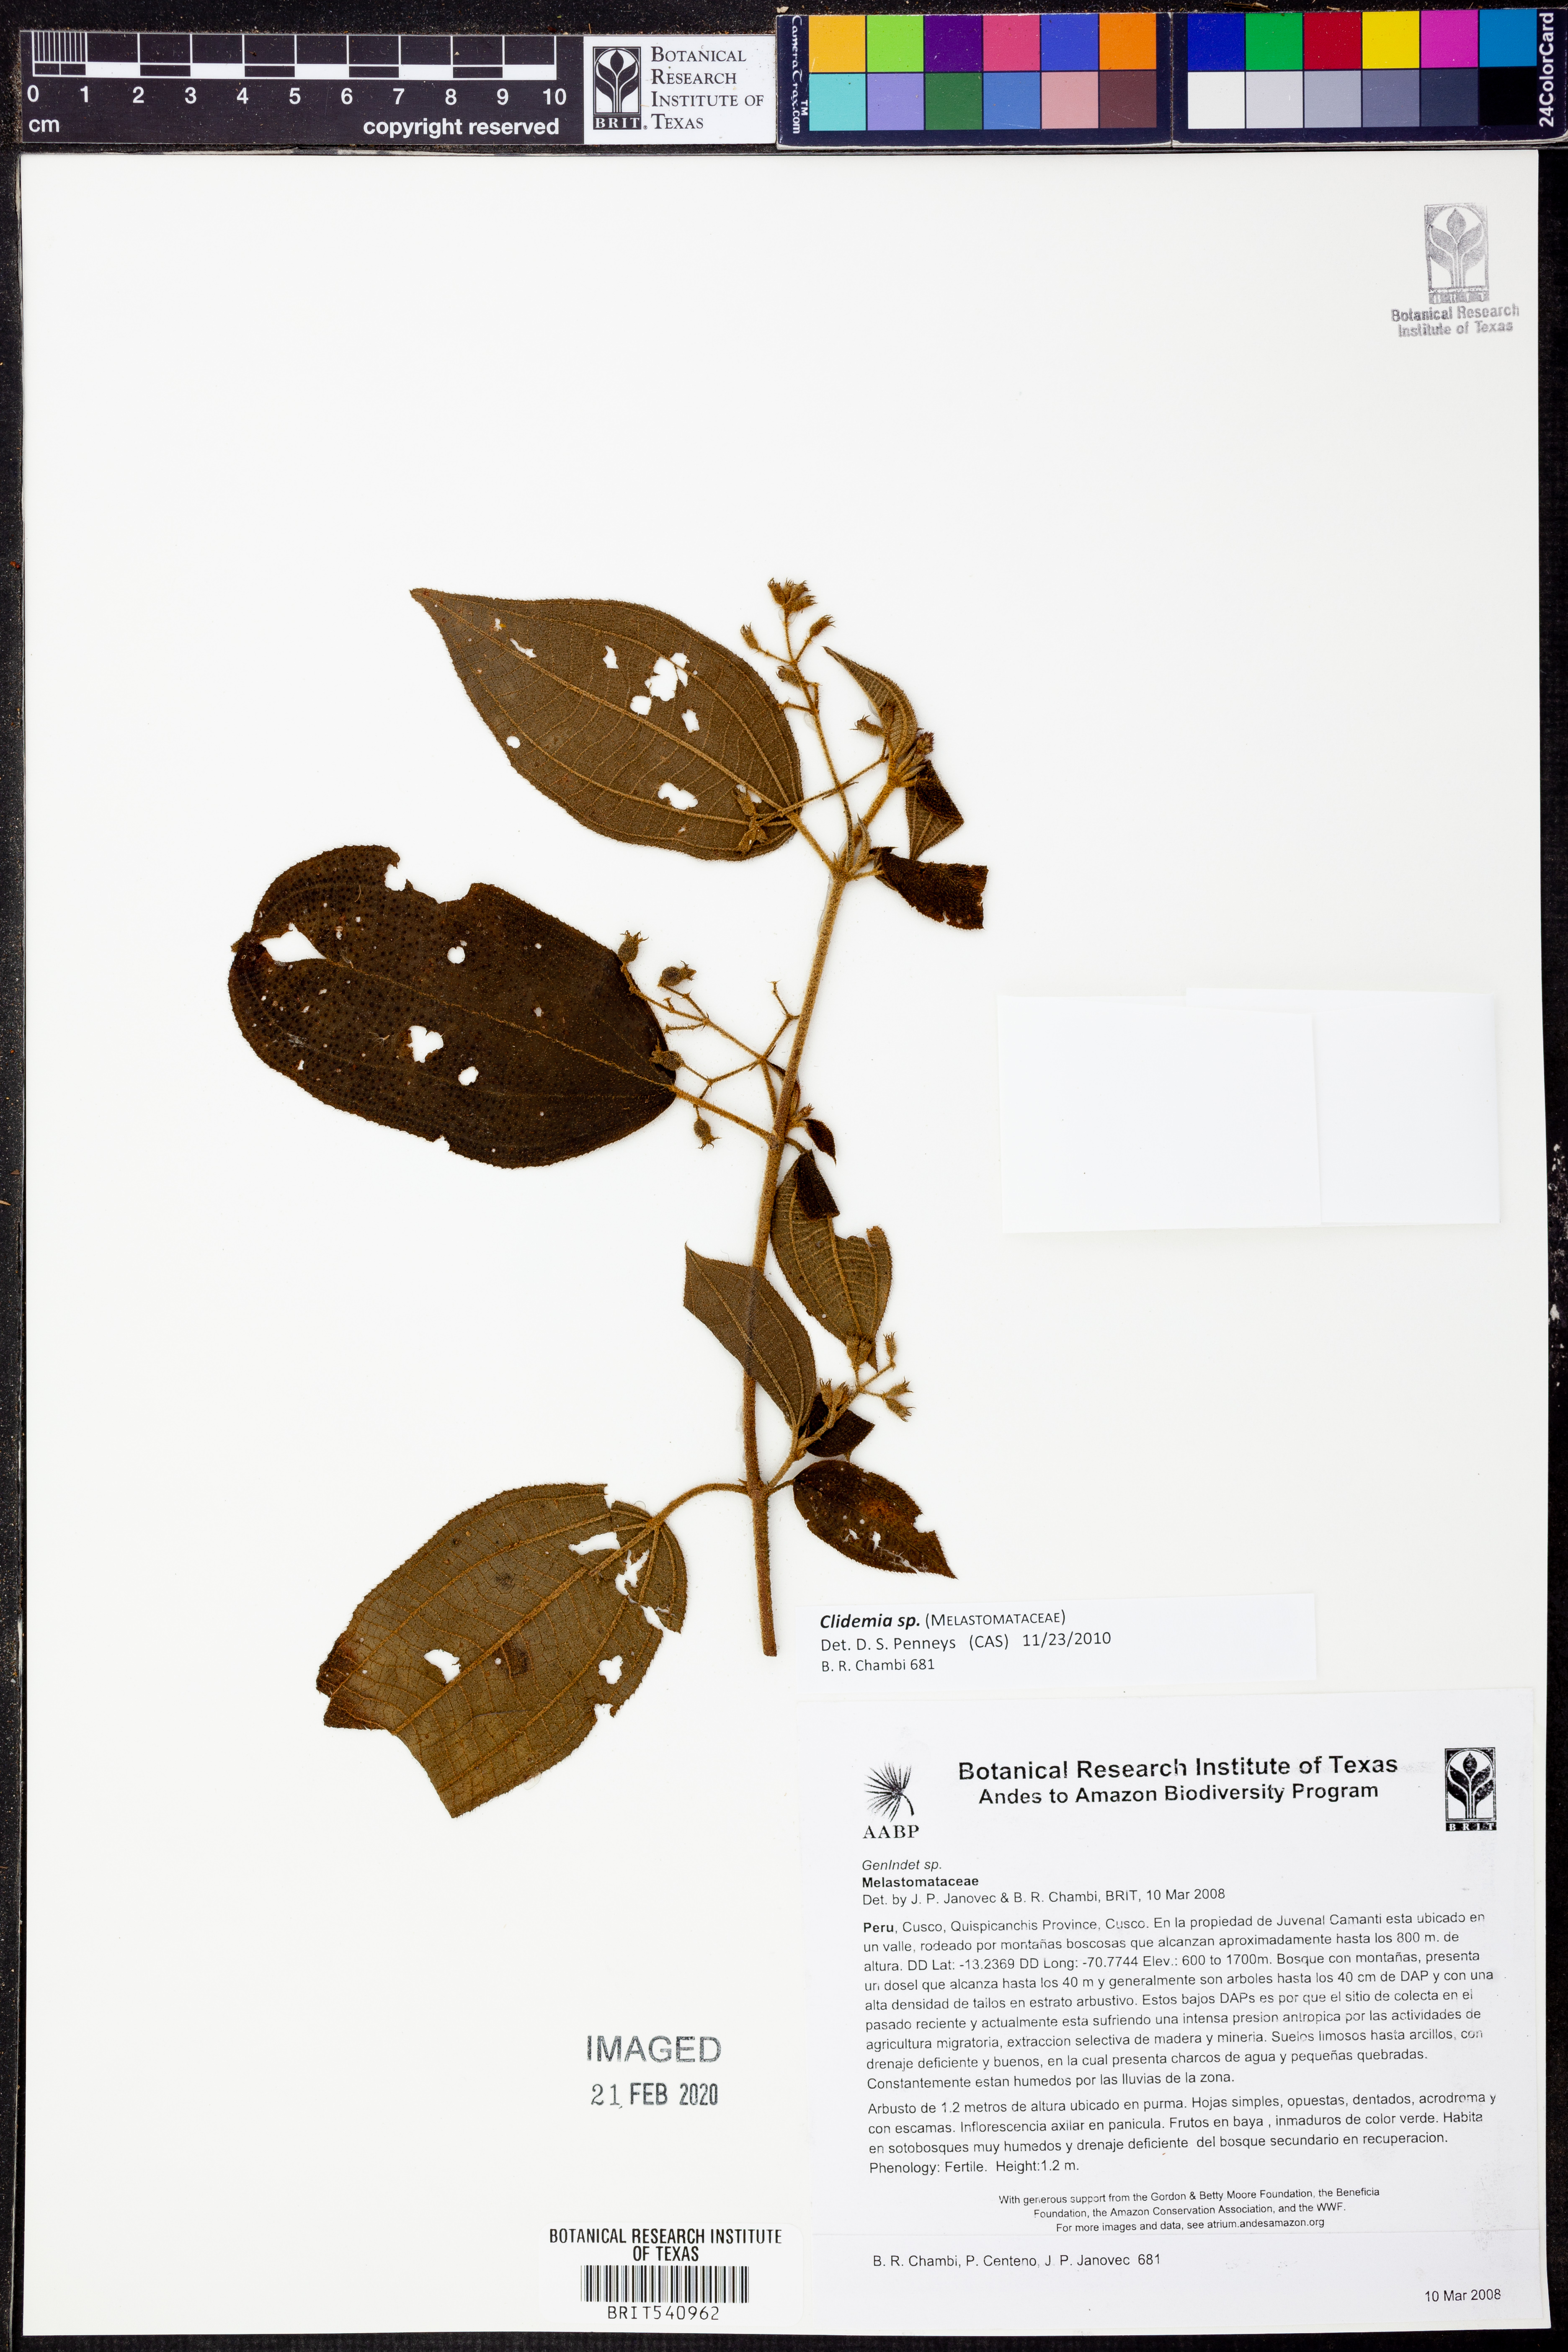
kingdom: Plantae
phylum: Tracheophyta
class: Magnoliopsida
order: Myrtales
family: Melastomataceae
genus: Miconia
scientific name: Miconia
